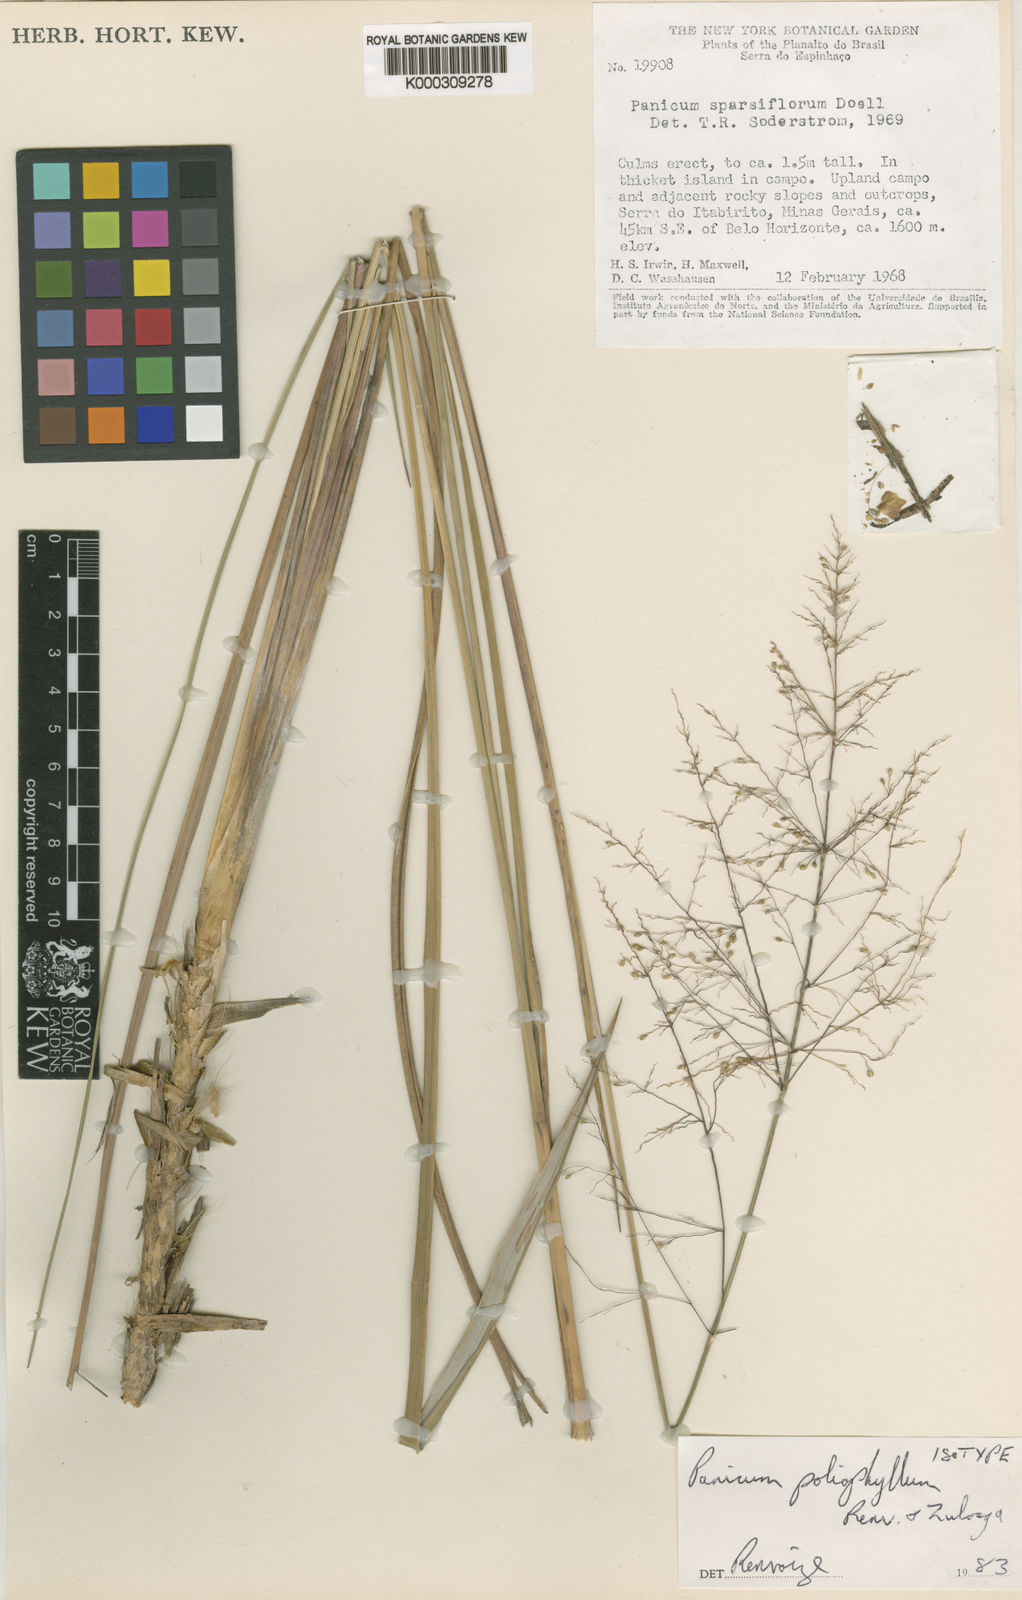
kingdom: Plantae
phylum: Tracheophyta
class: Liliopsida
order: Poales
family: Poaceae
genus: Apochloa
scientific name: Apochloa poliophylla
